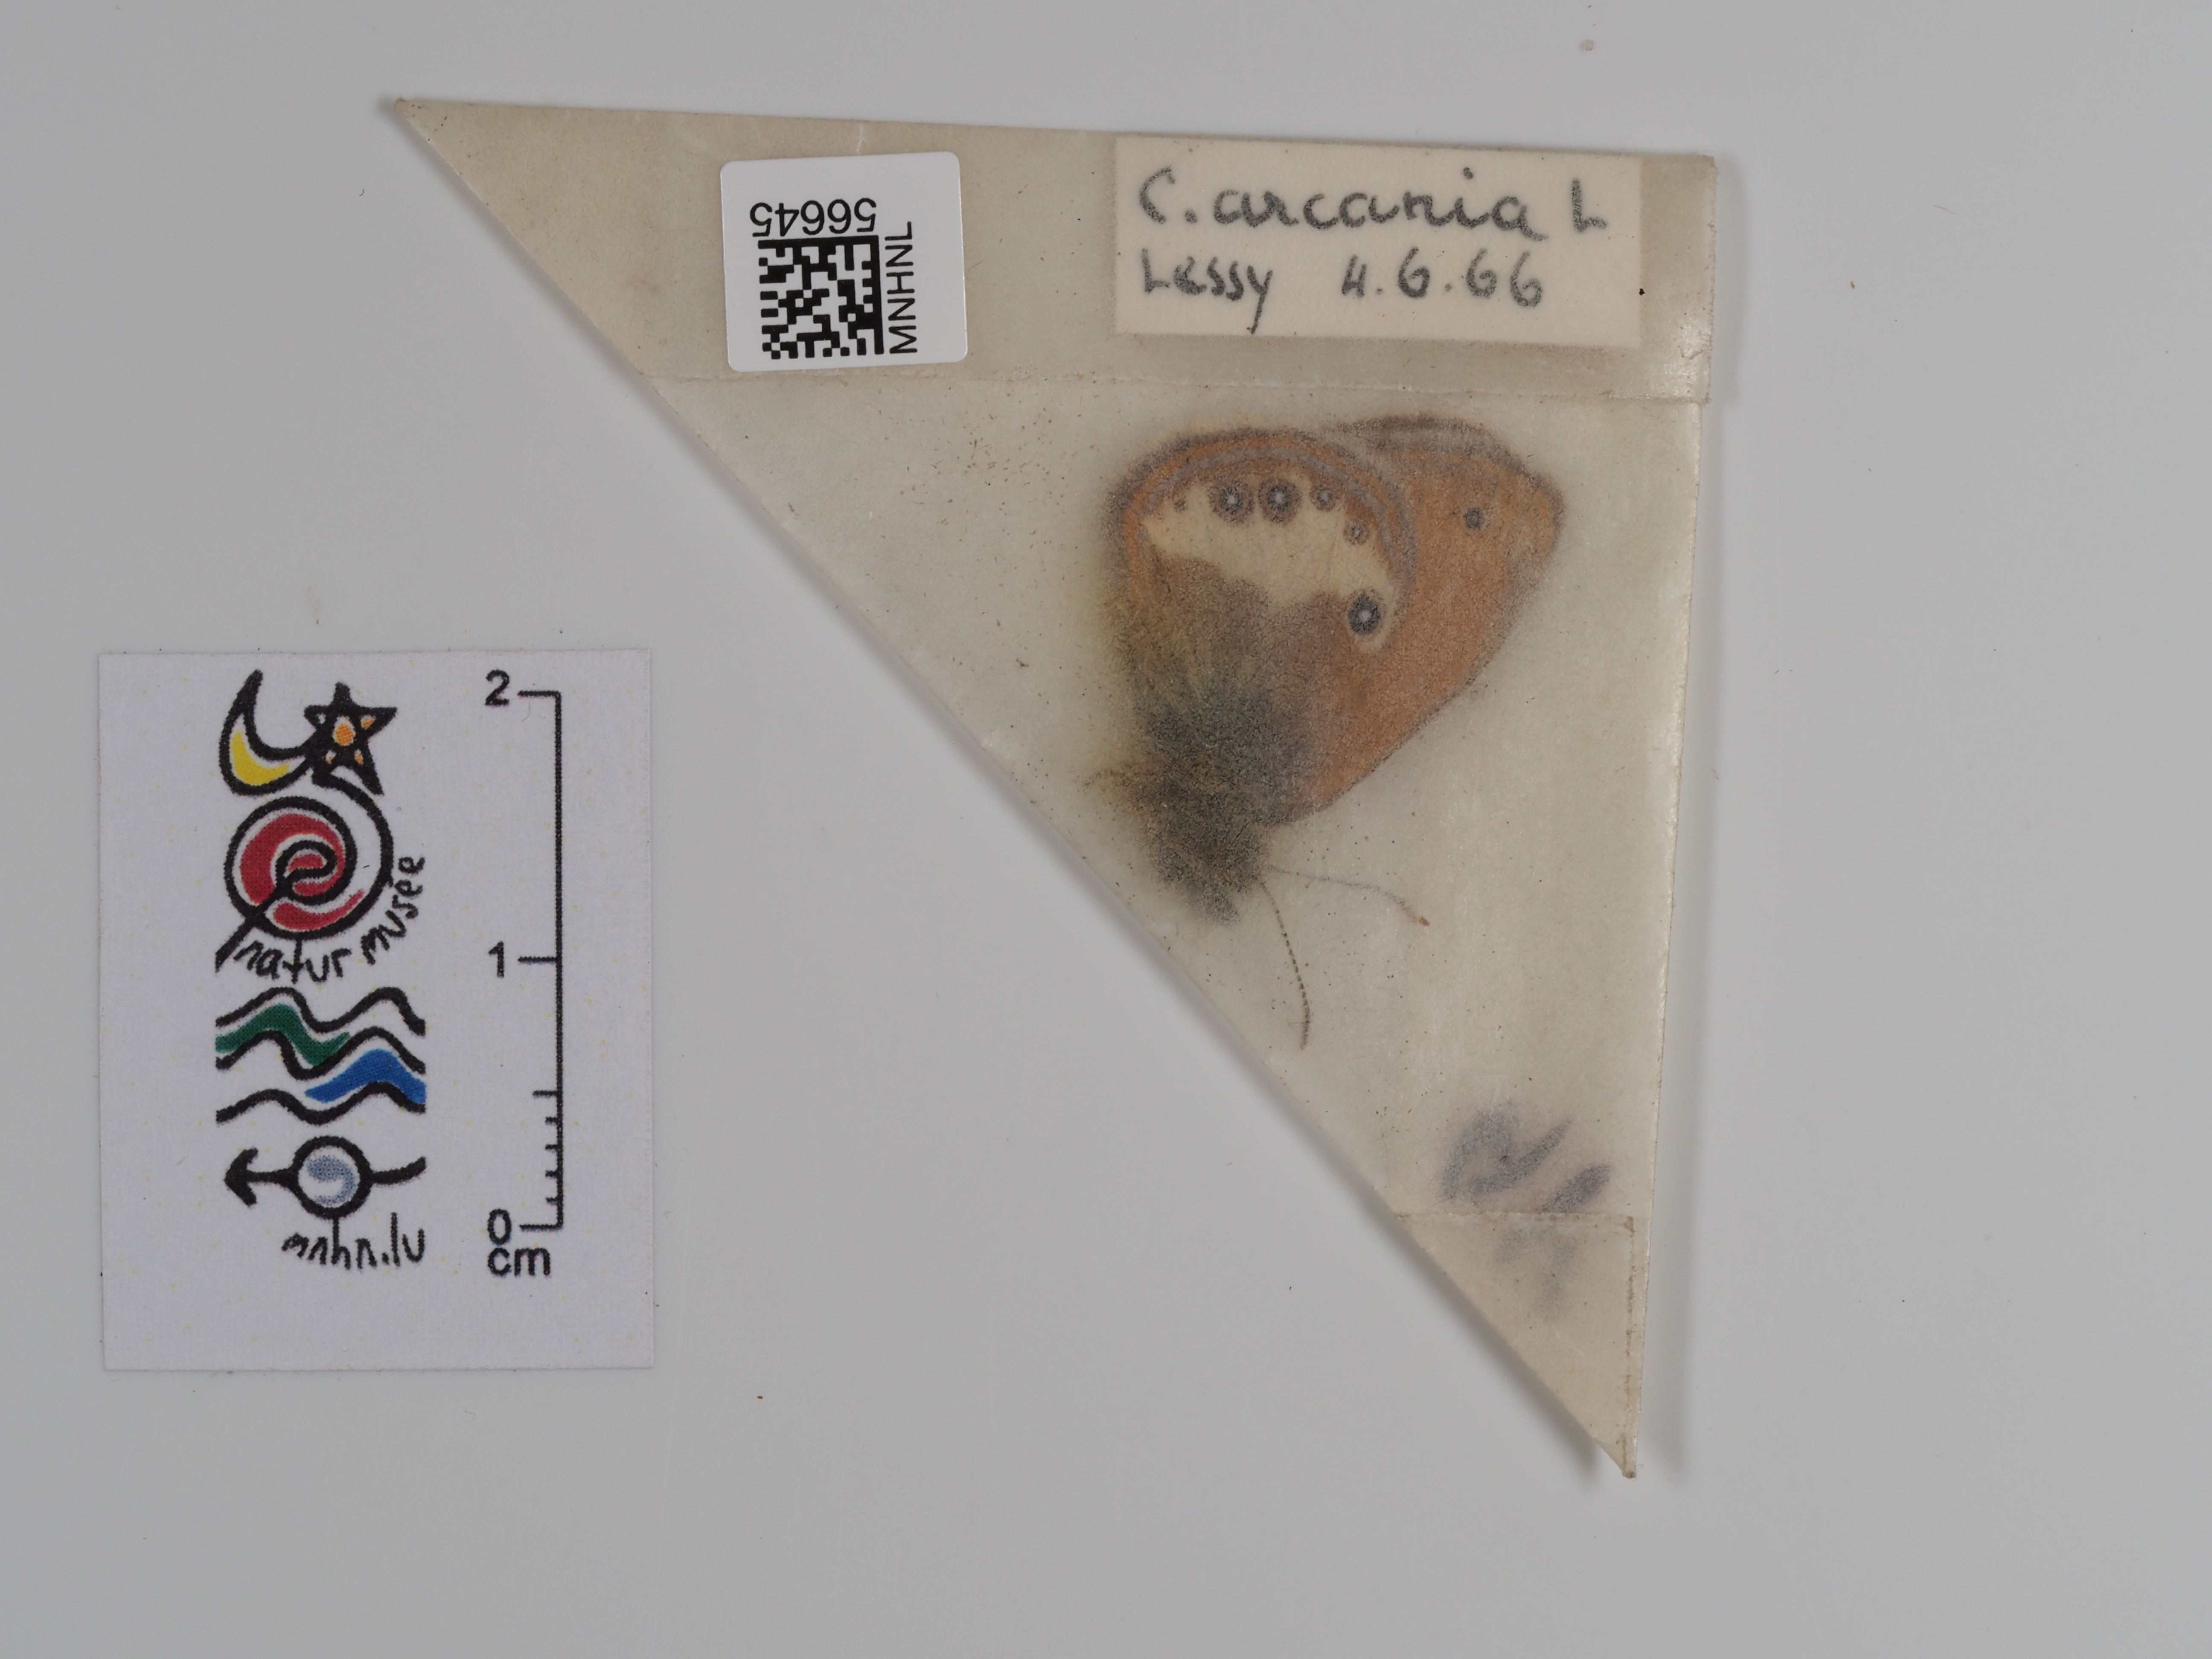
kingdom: Animalia
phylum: Arthropoda
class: Insecta
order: Lepidoptera
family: Nymphalidae
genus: Coenonympha
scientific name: Coenonympha arcania
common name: Pearly heath
